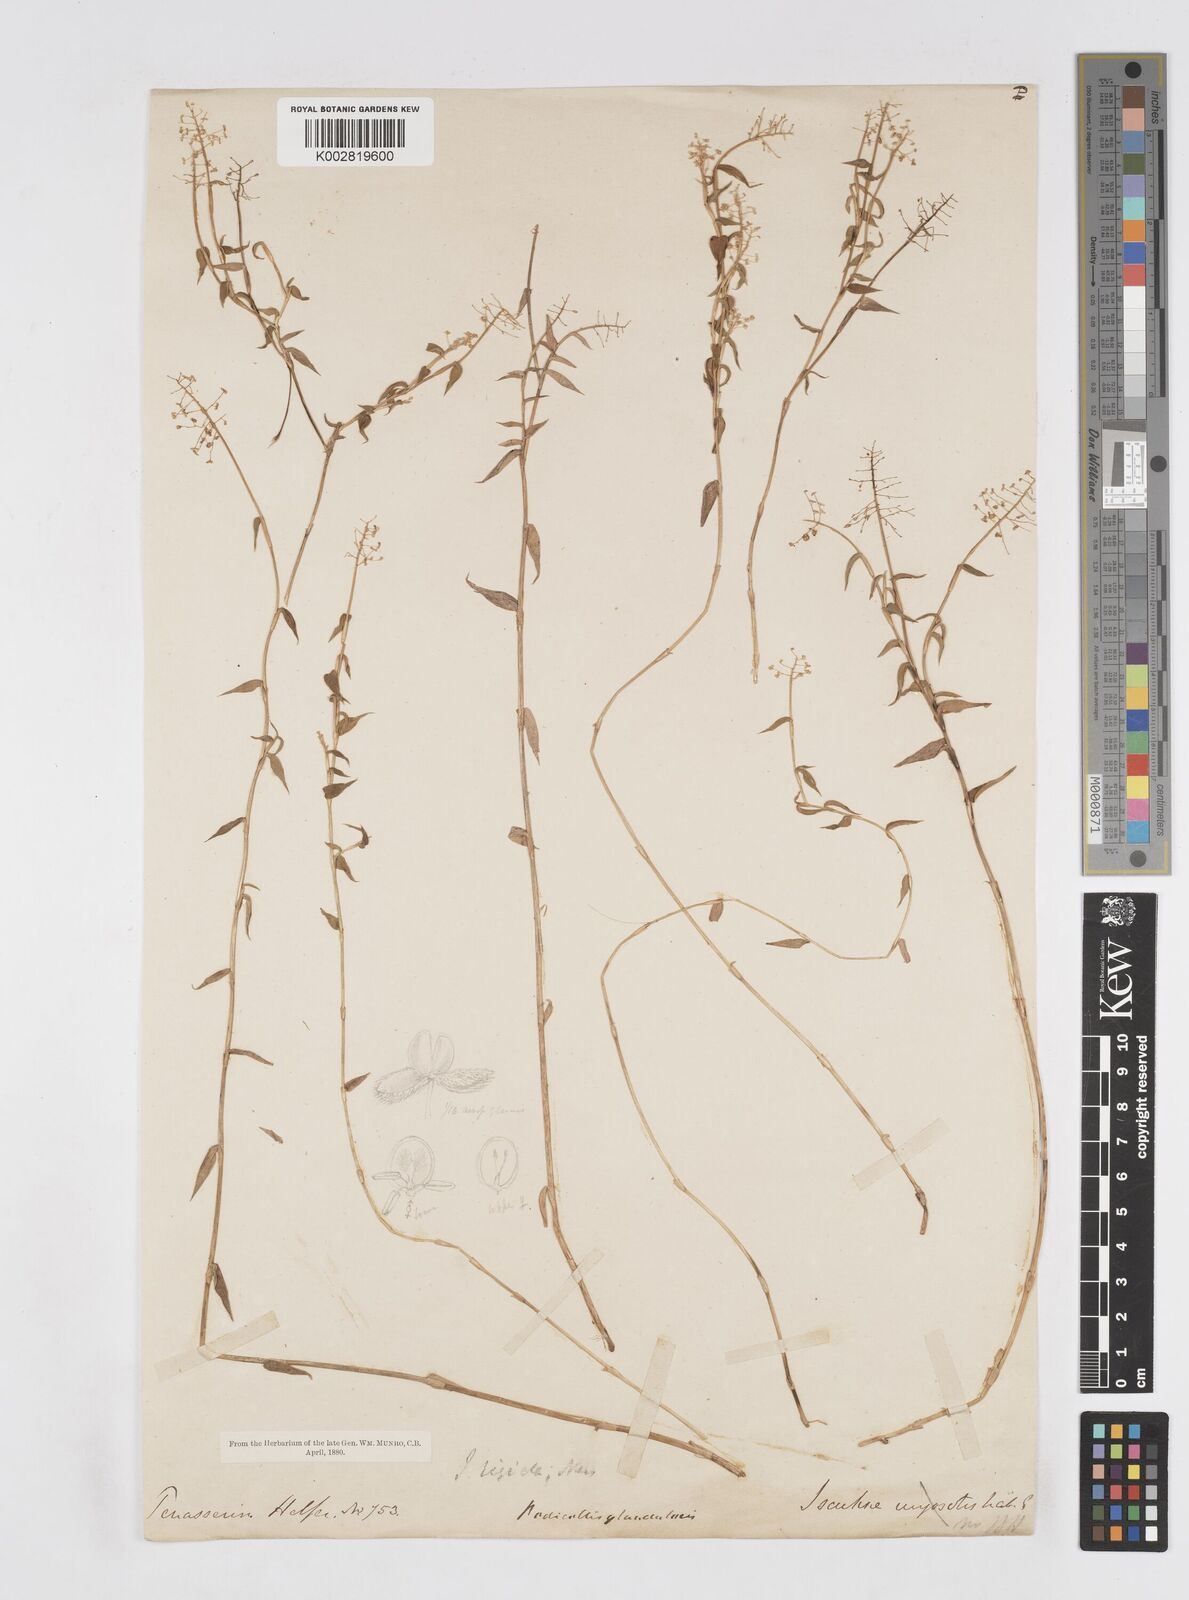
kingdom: Plantae
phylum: Tracheophyta
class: Liliopsida
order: Poales
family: Poaceae
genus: Isachne
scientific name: Isachne confusa
